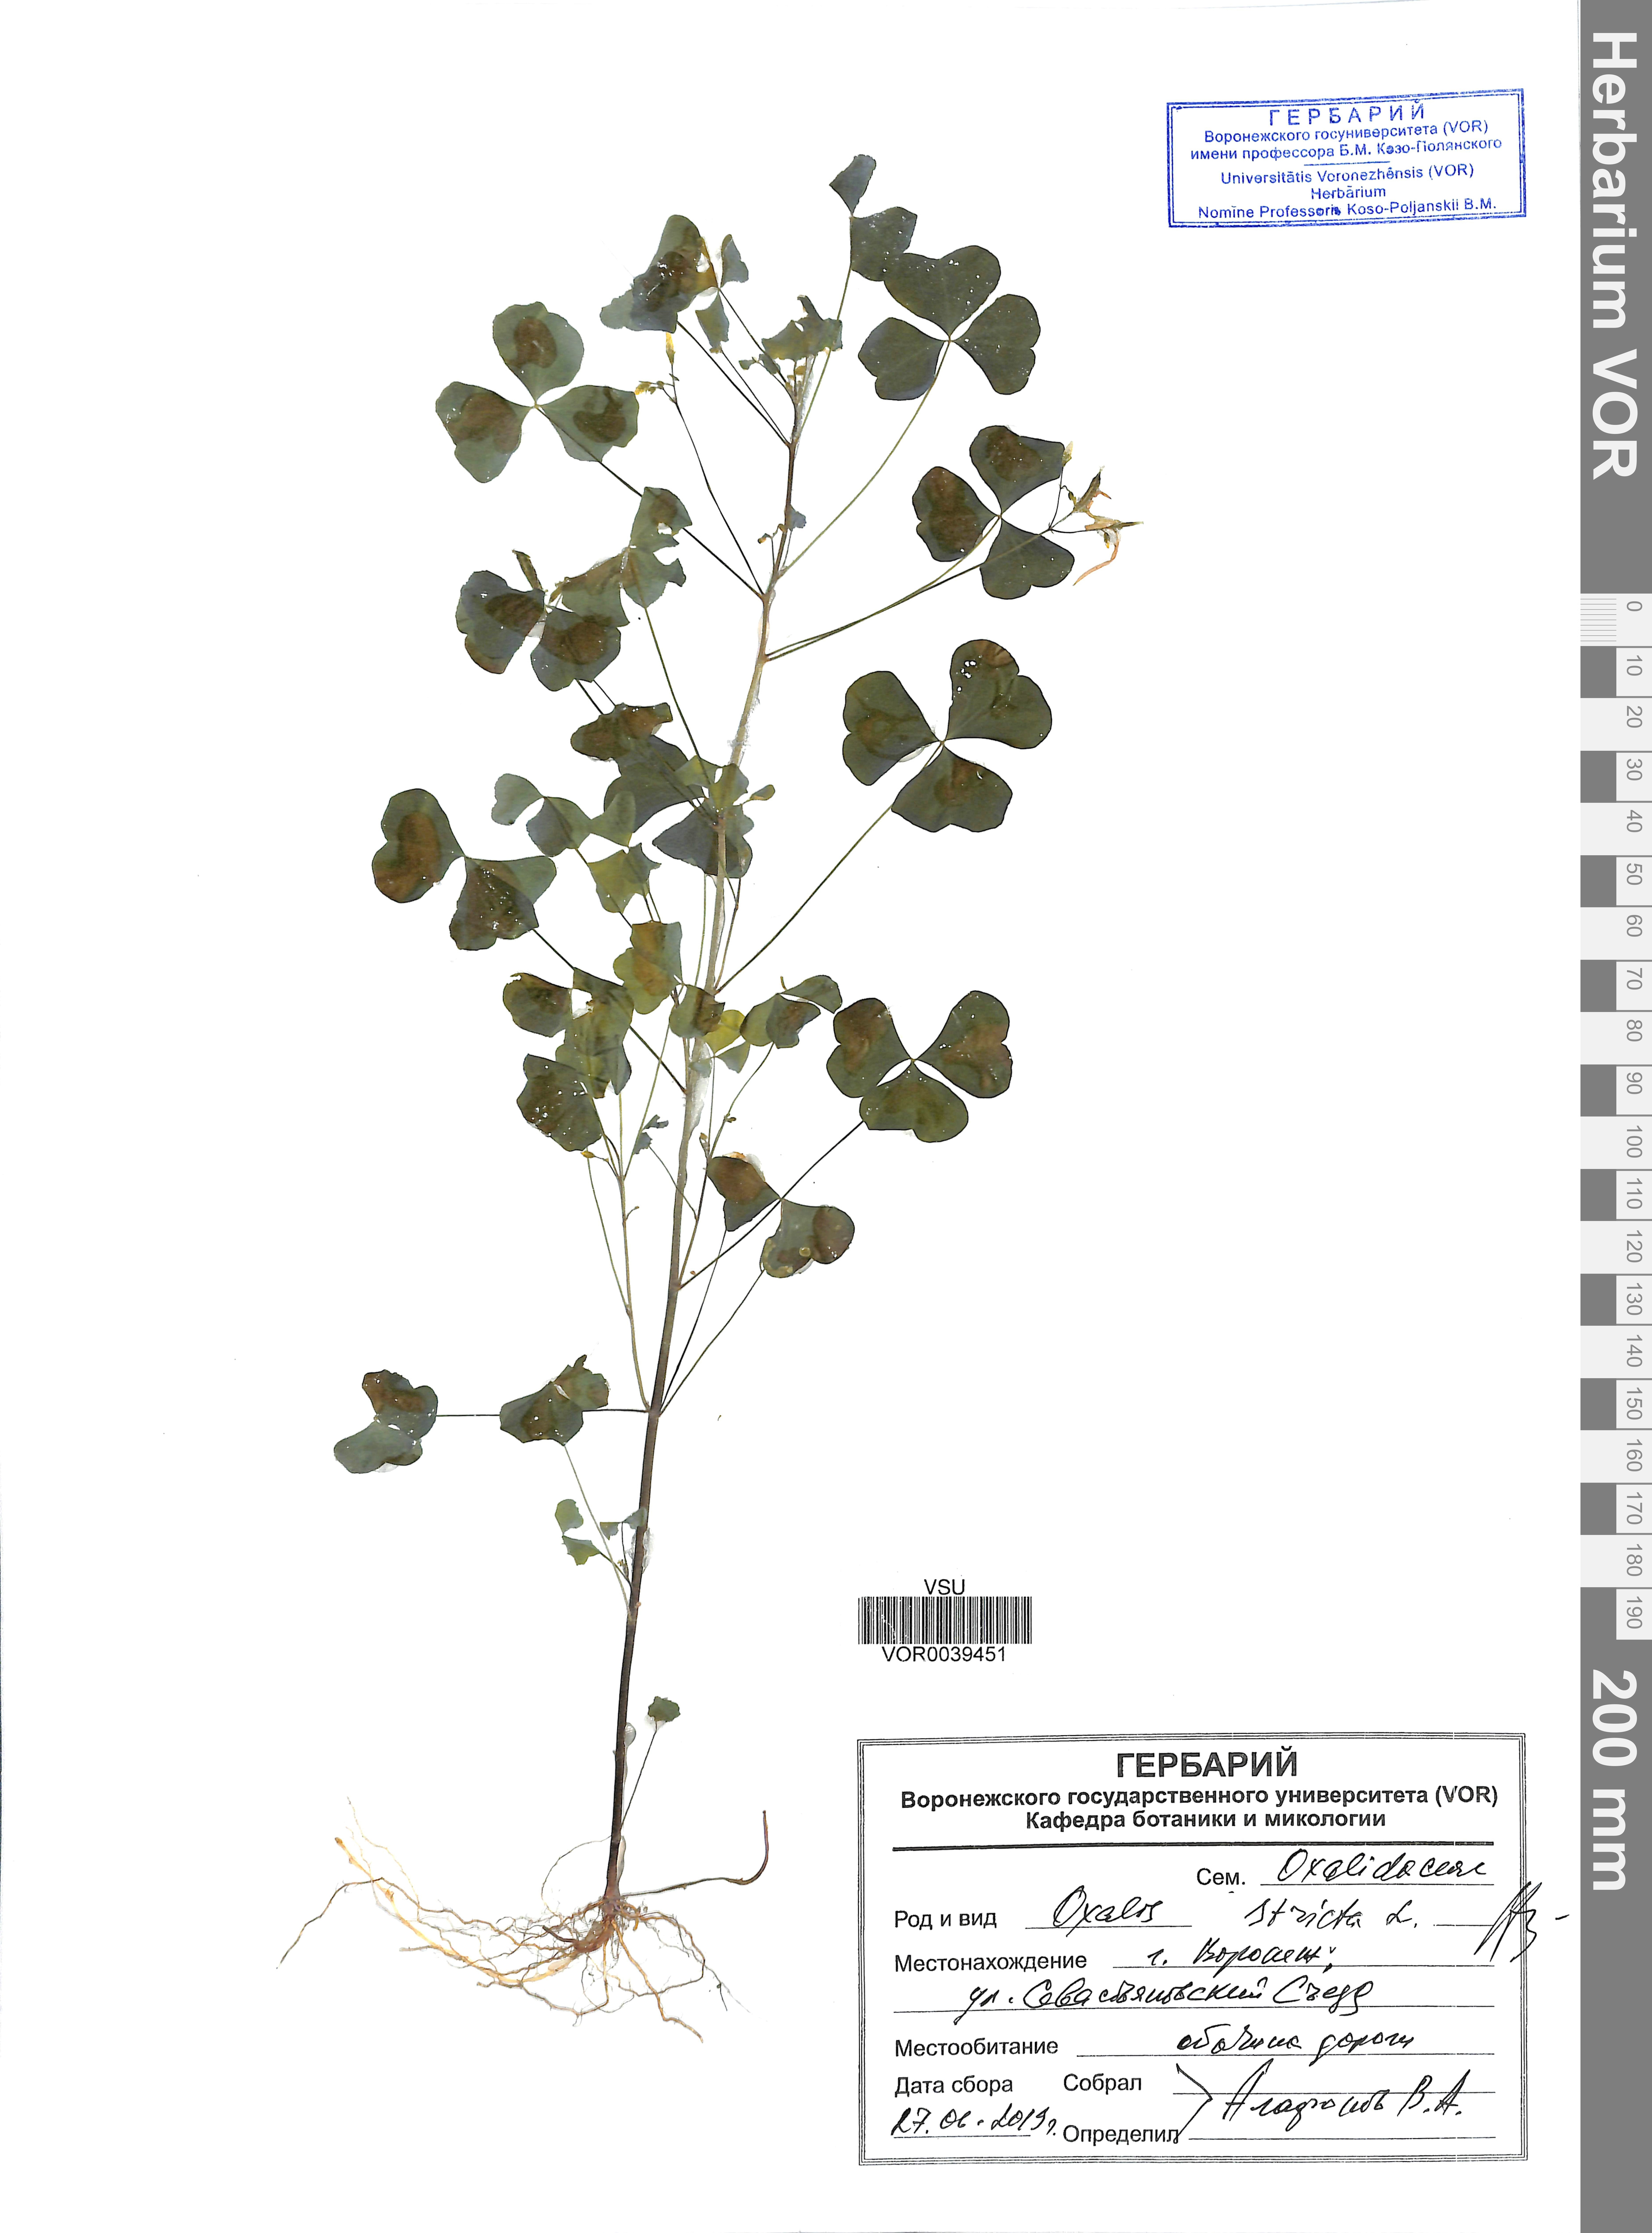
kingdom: Plantae
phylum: Tracheophyta
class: Magnoliopsida
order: Oxalidales
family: Oxalidaceae
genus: Oxalis
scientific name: Oxalis stricta
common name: Upright yellow-sorrel
